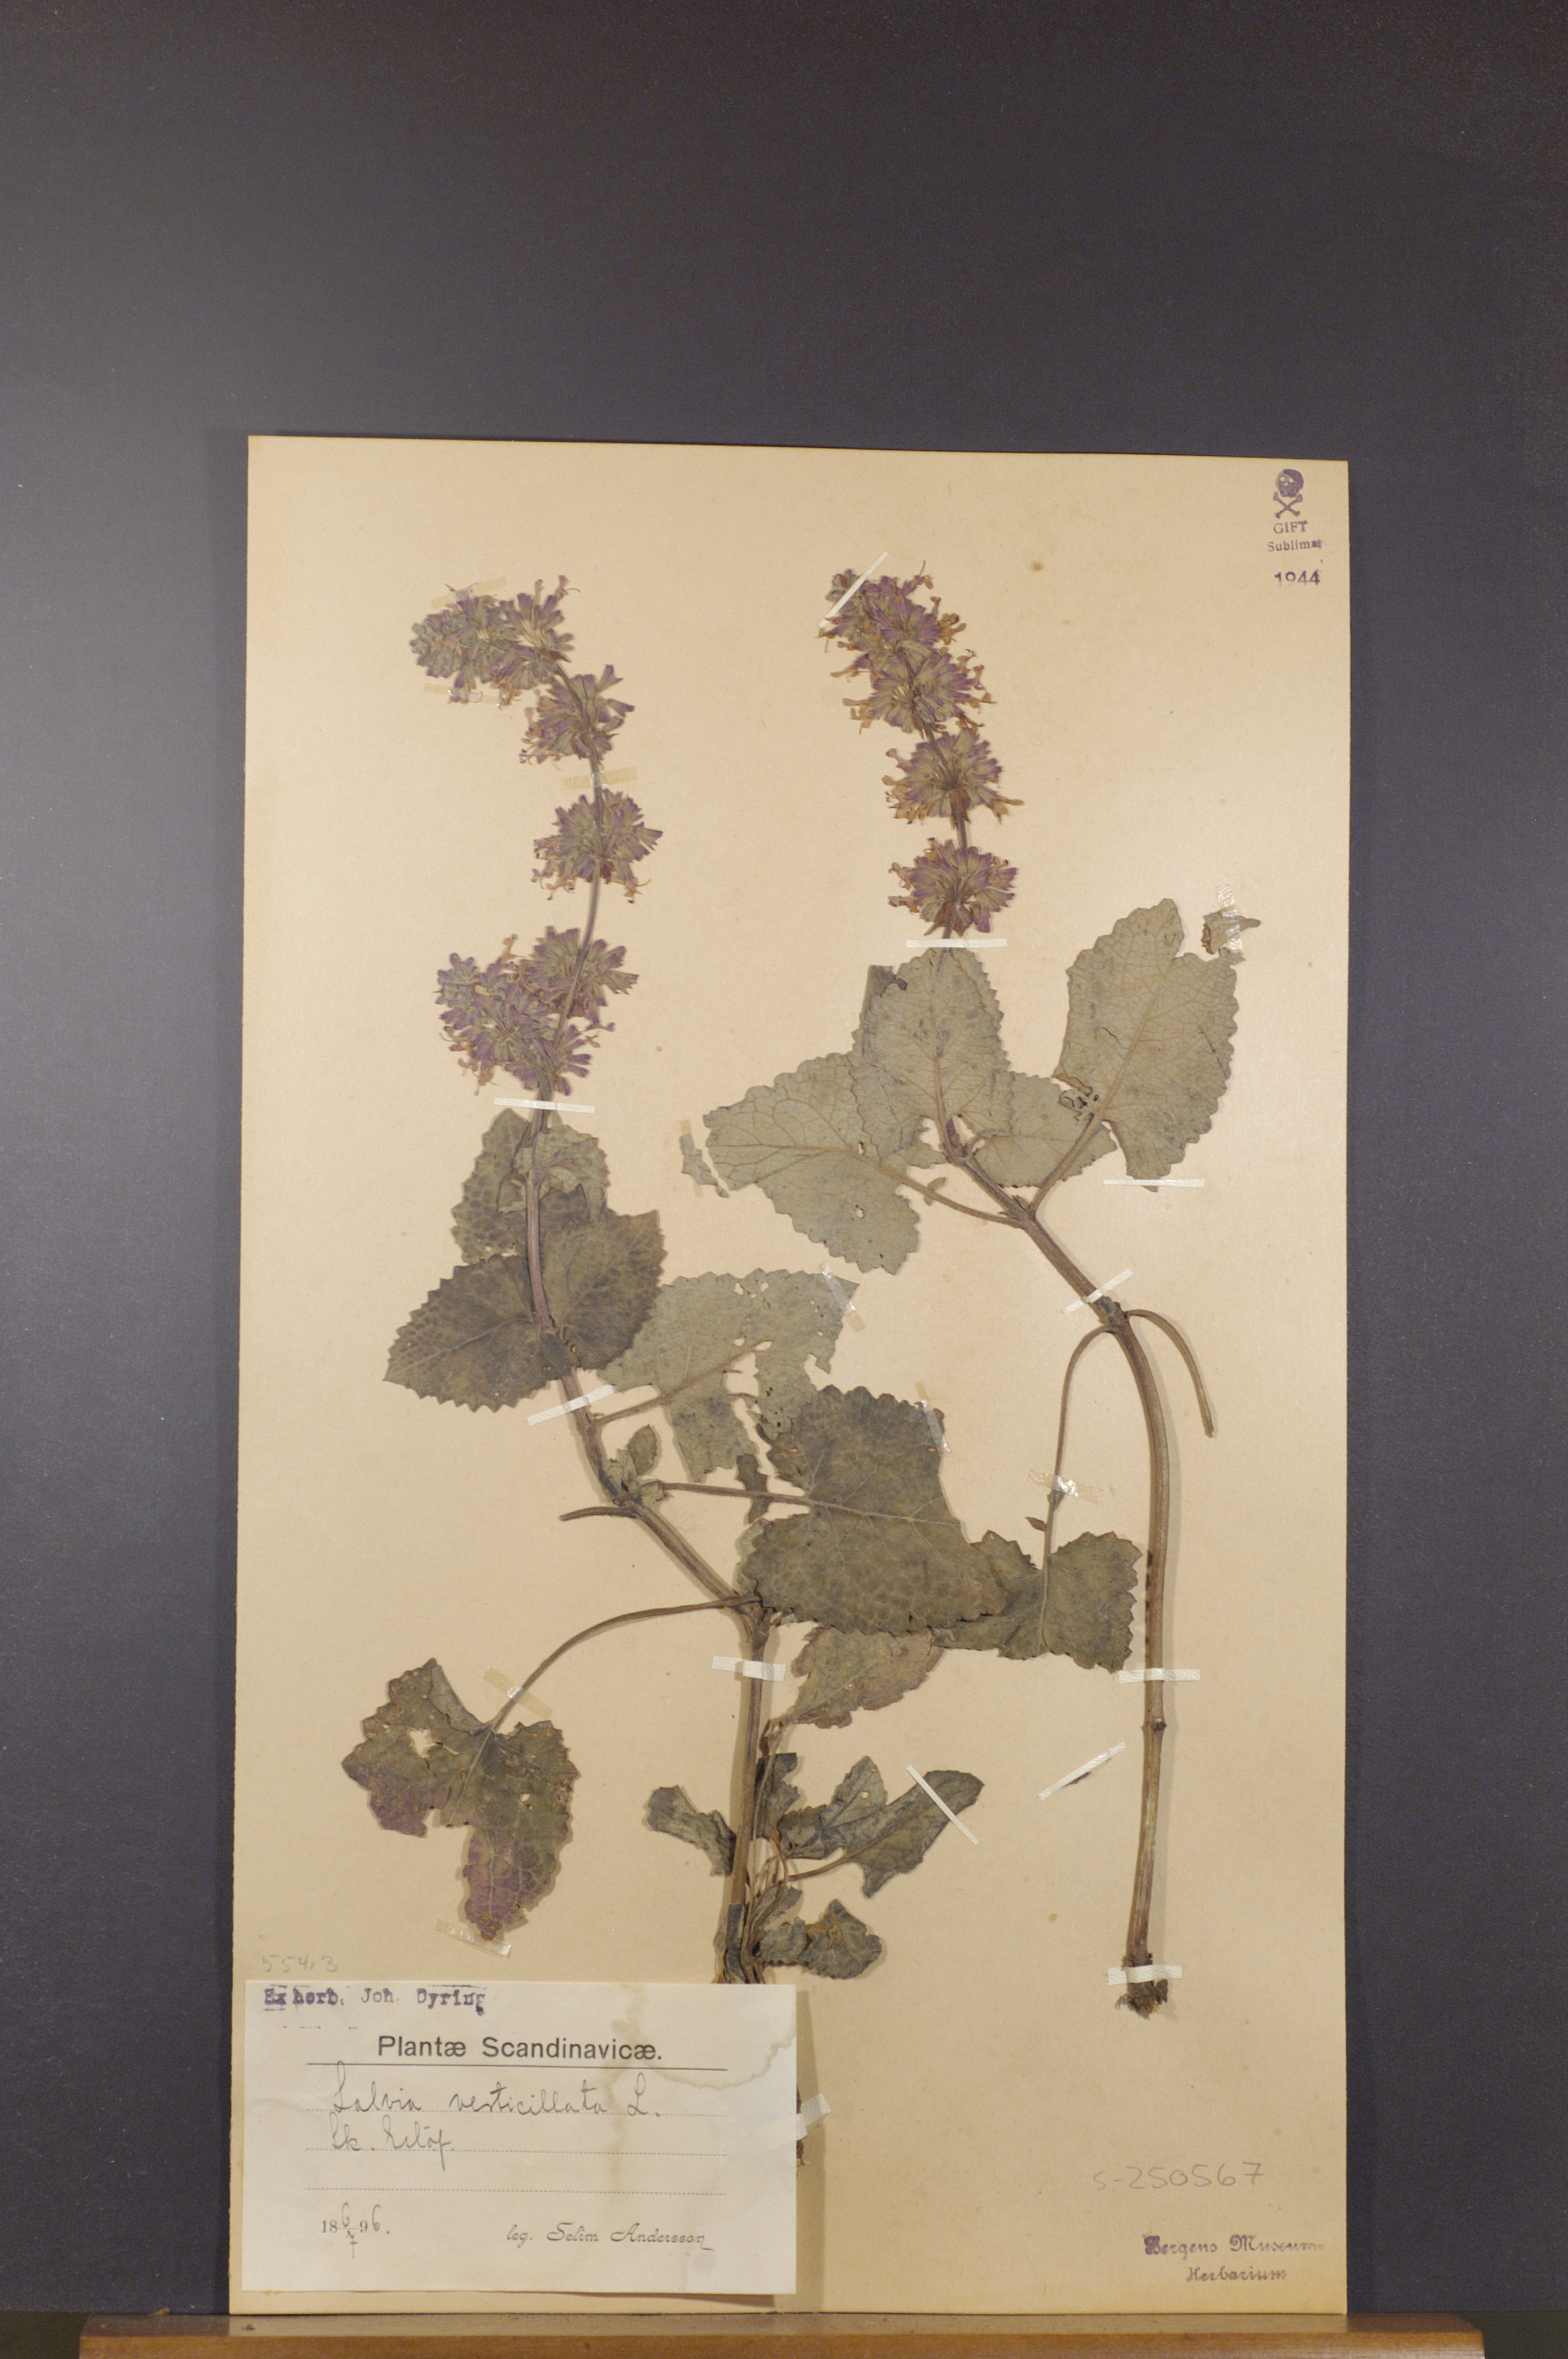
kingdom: Plantae
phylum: Tracheophyta
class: Magnoliopsida
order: Lamiales
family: Lamiaceae
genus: Salvia
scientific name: Salvia verticillata
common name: Whorled clary
